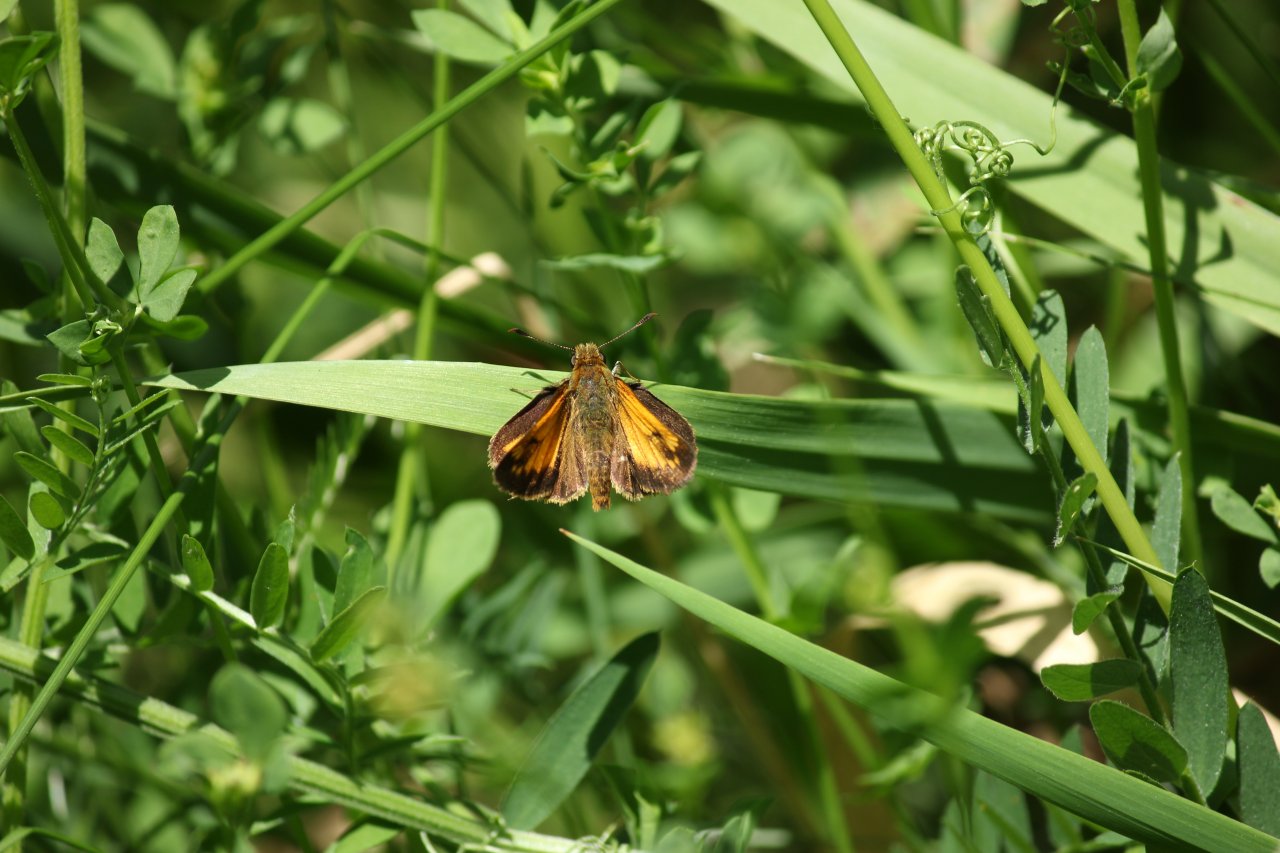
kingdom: Animalia
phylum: Arthropoda
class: Insecta
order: Lepidoptera
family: Hesperiidae
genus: Lon
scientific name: Lon hobomok
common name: Hobomok Skipper
